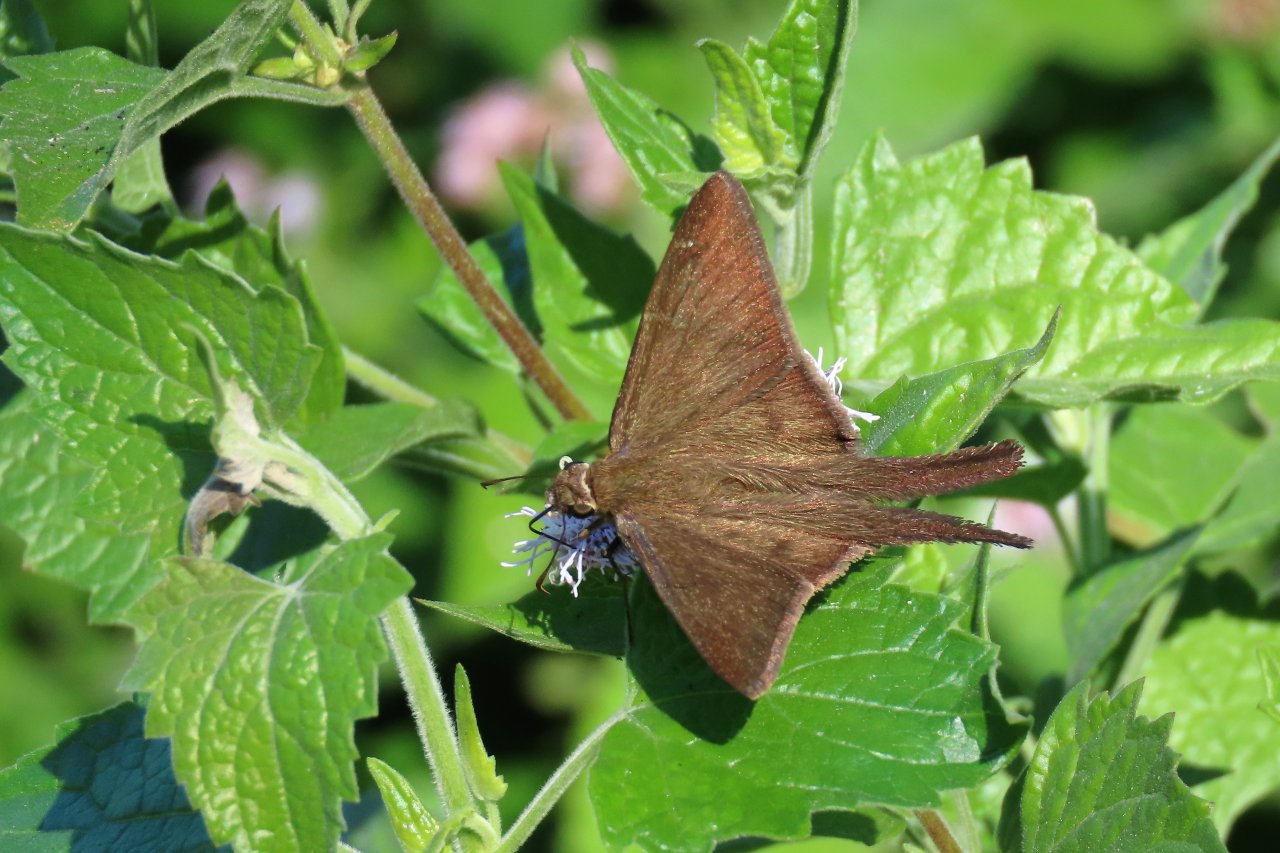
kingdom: Animalia
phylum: Arthropoda
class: Insecta
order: Lepidoptera
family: Hesperiidae
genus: Urbanus
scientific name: Urbanus procne
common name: Brown Longtail
